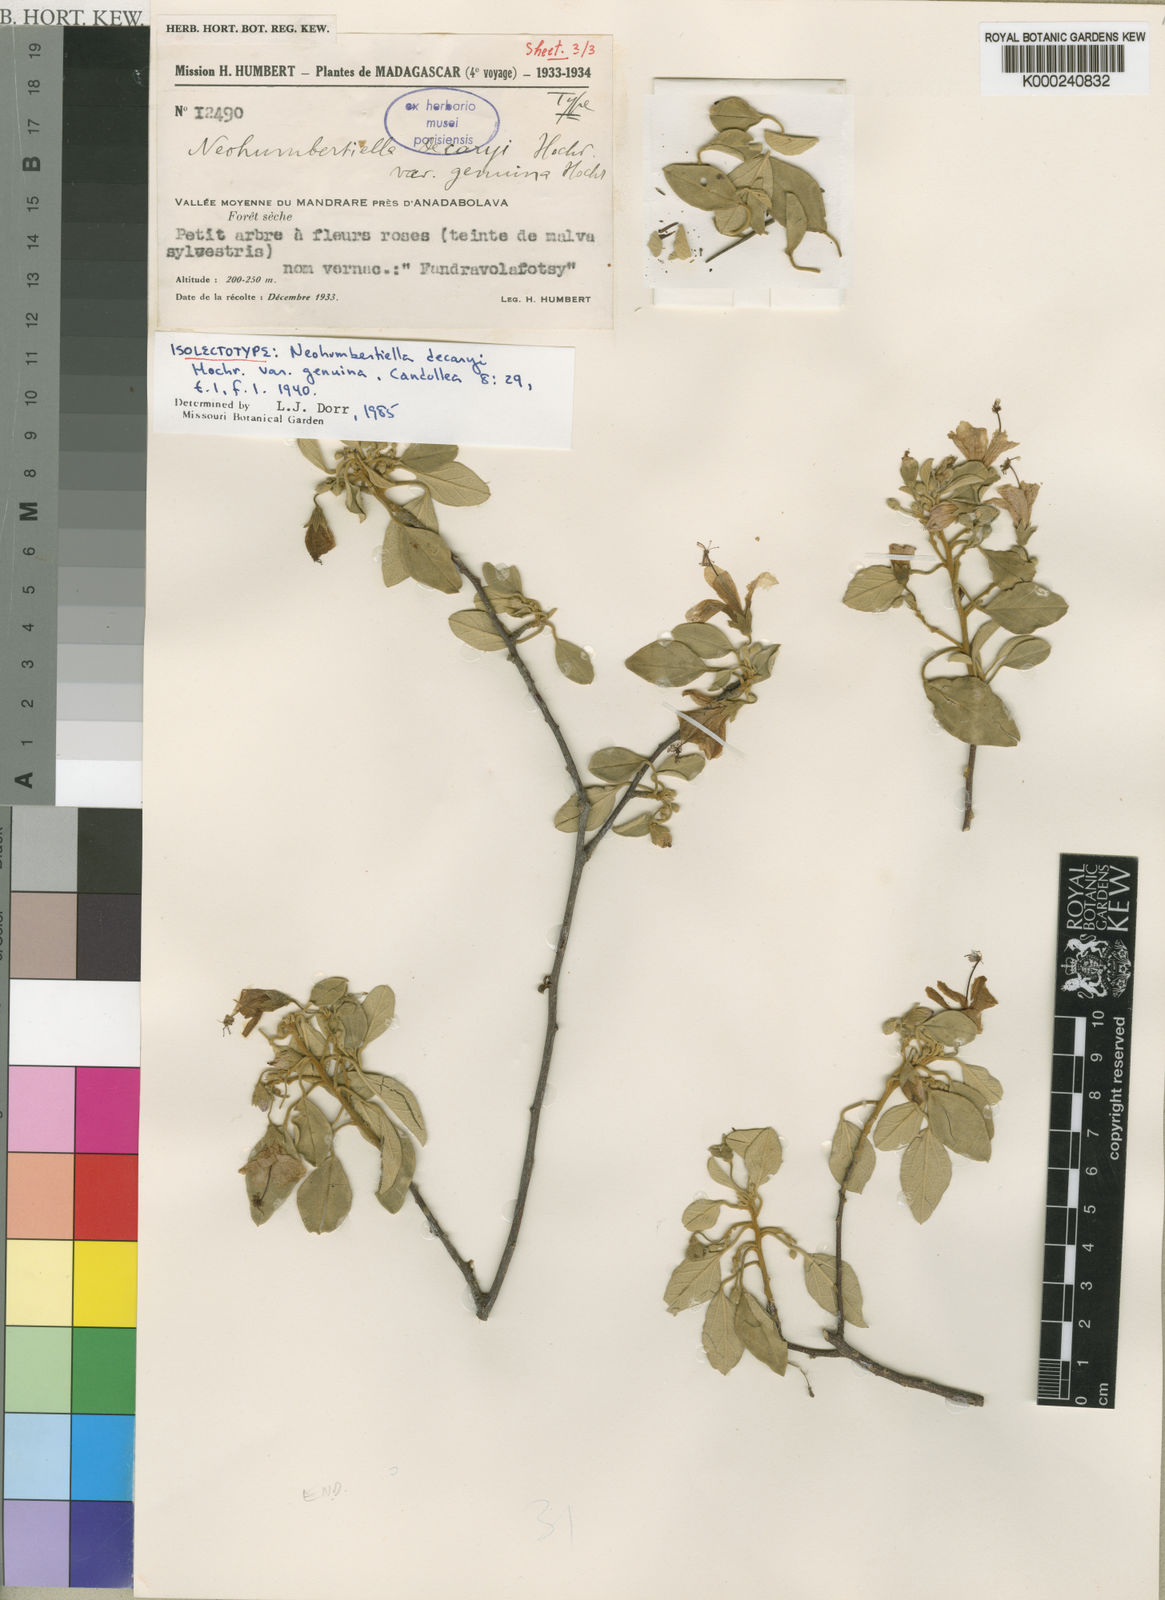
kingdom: Plantae
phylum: Tracheophyta
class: Magnoliopsida
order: Malvales
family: Malvaceae
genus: Humbertiella
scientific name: Humbertiella decaryi
